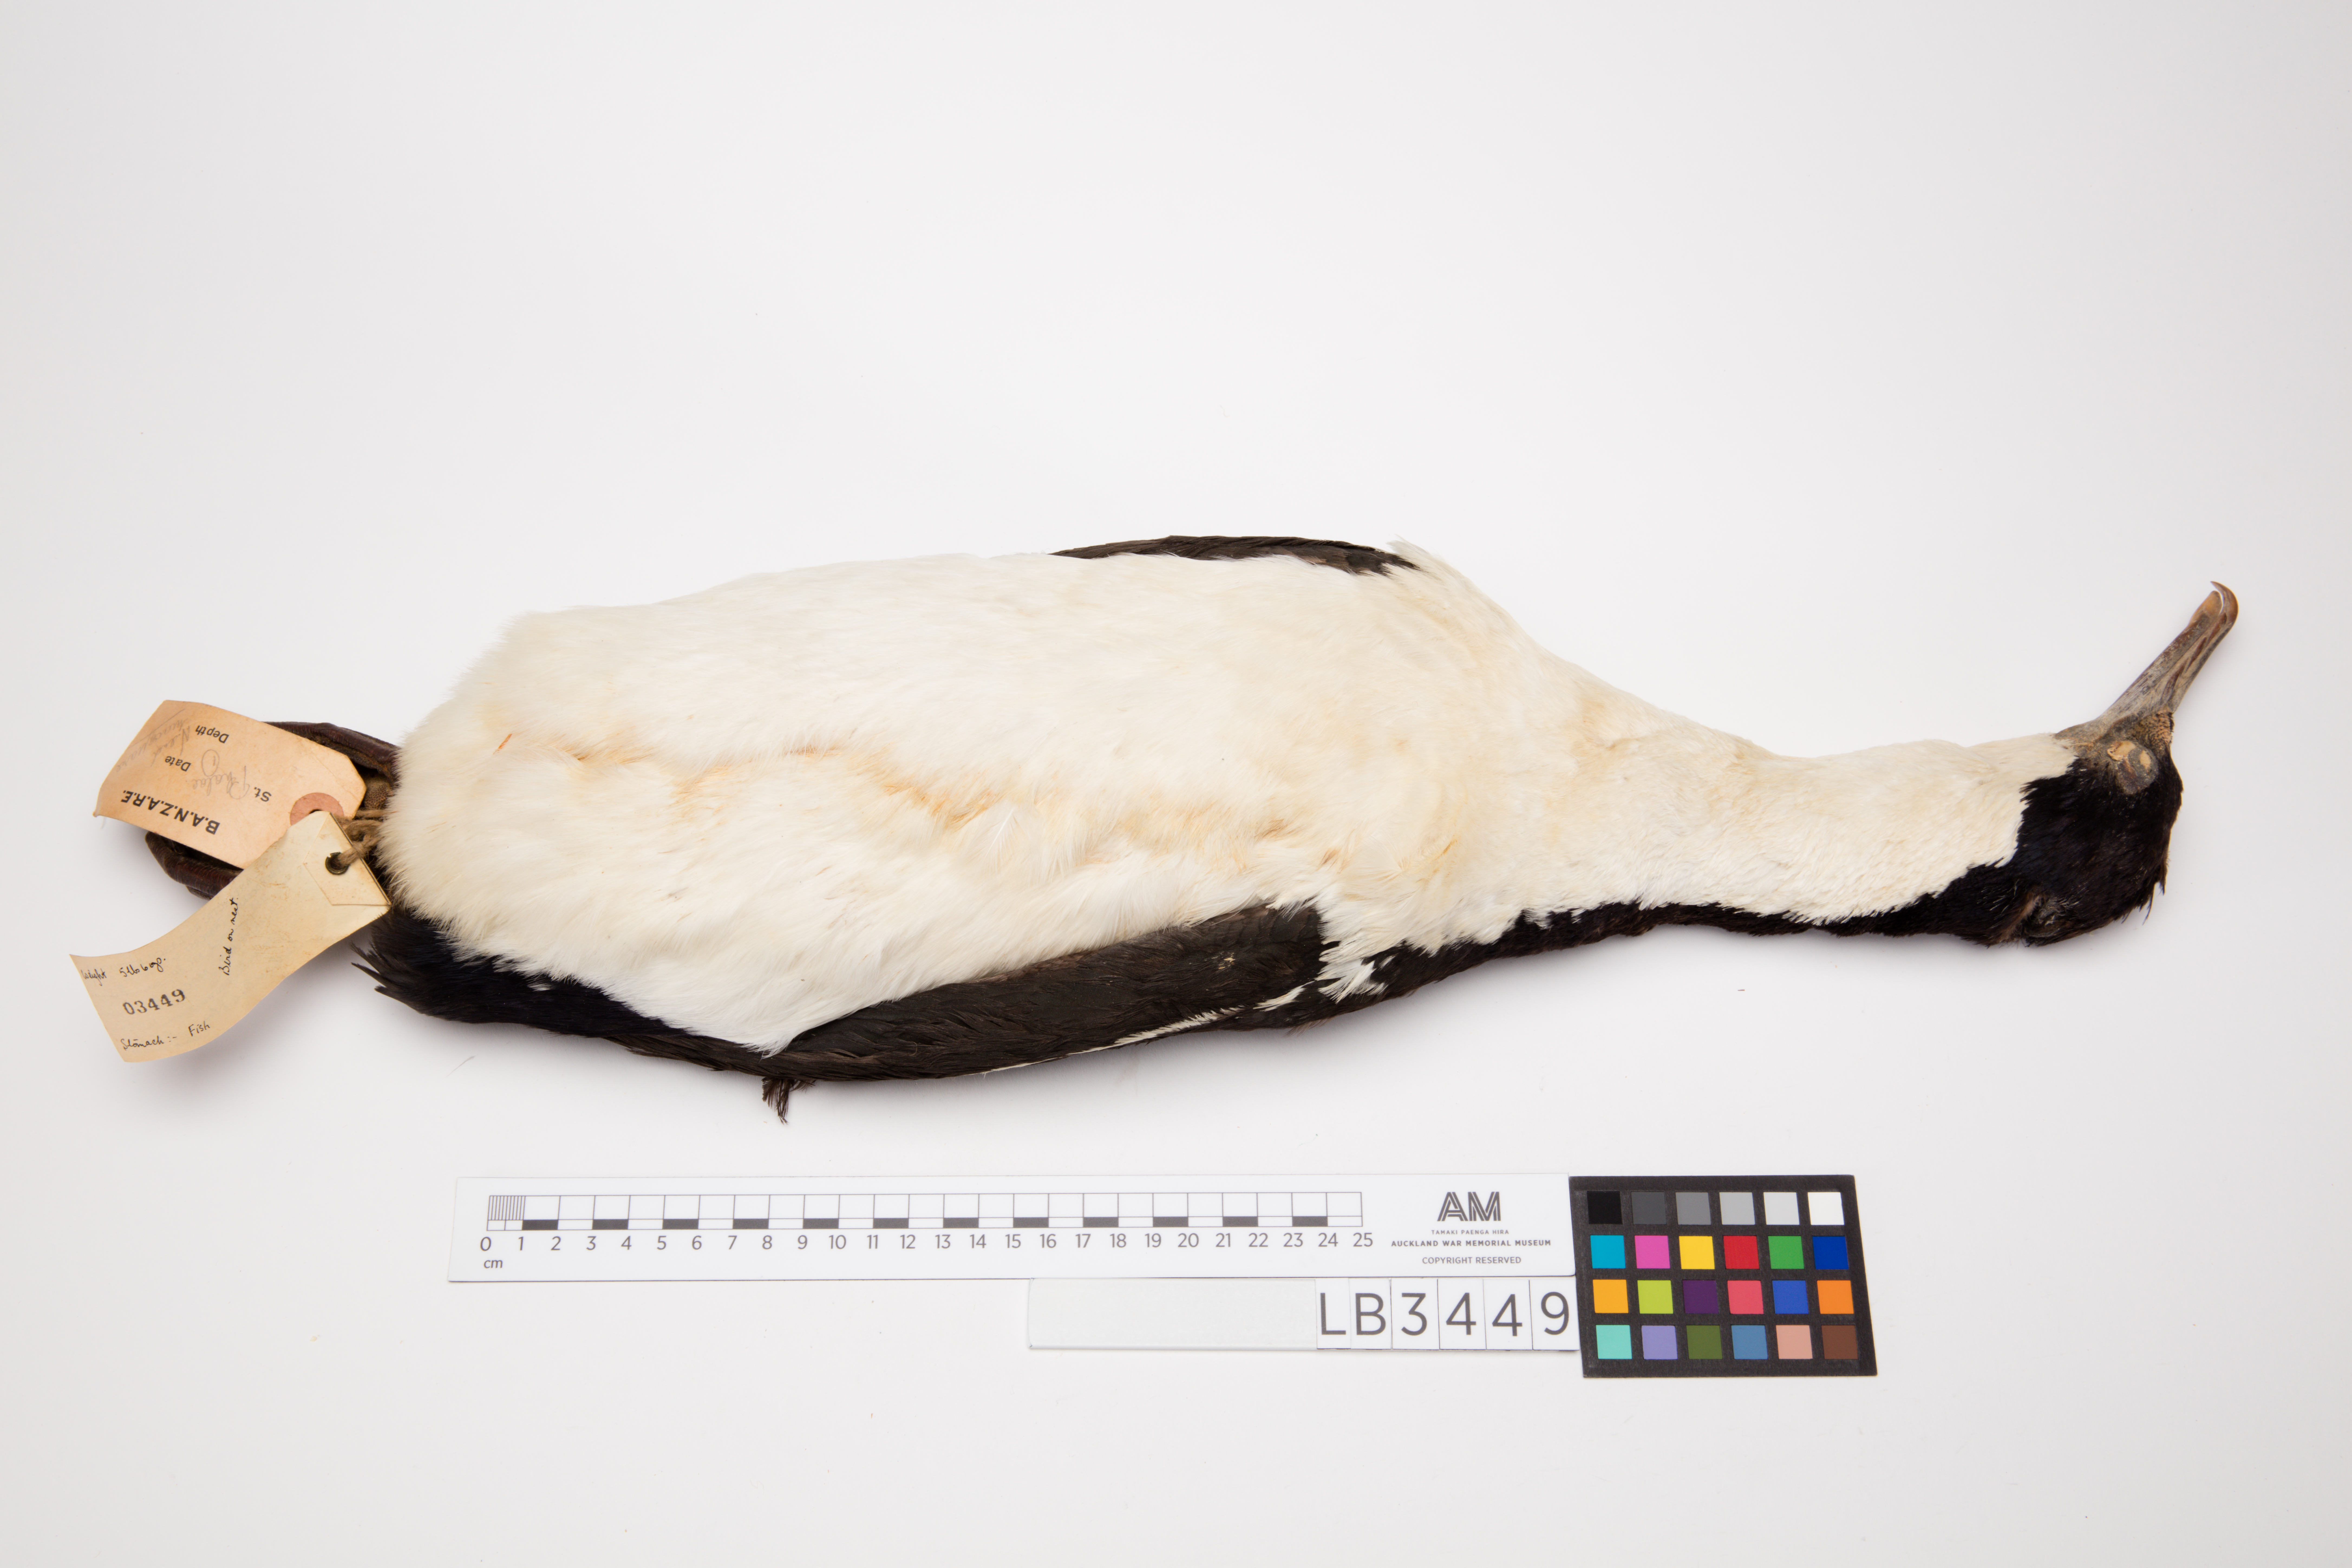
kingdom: Animalia
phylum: Chordata
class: Aves
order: Suliformes
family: Phalacrocoracidae
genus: Leucocarbo
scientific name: Leucocarbo albiventer
